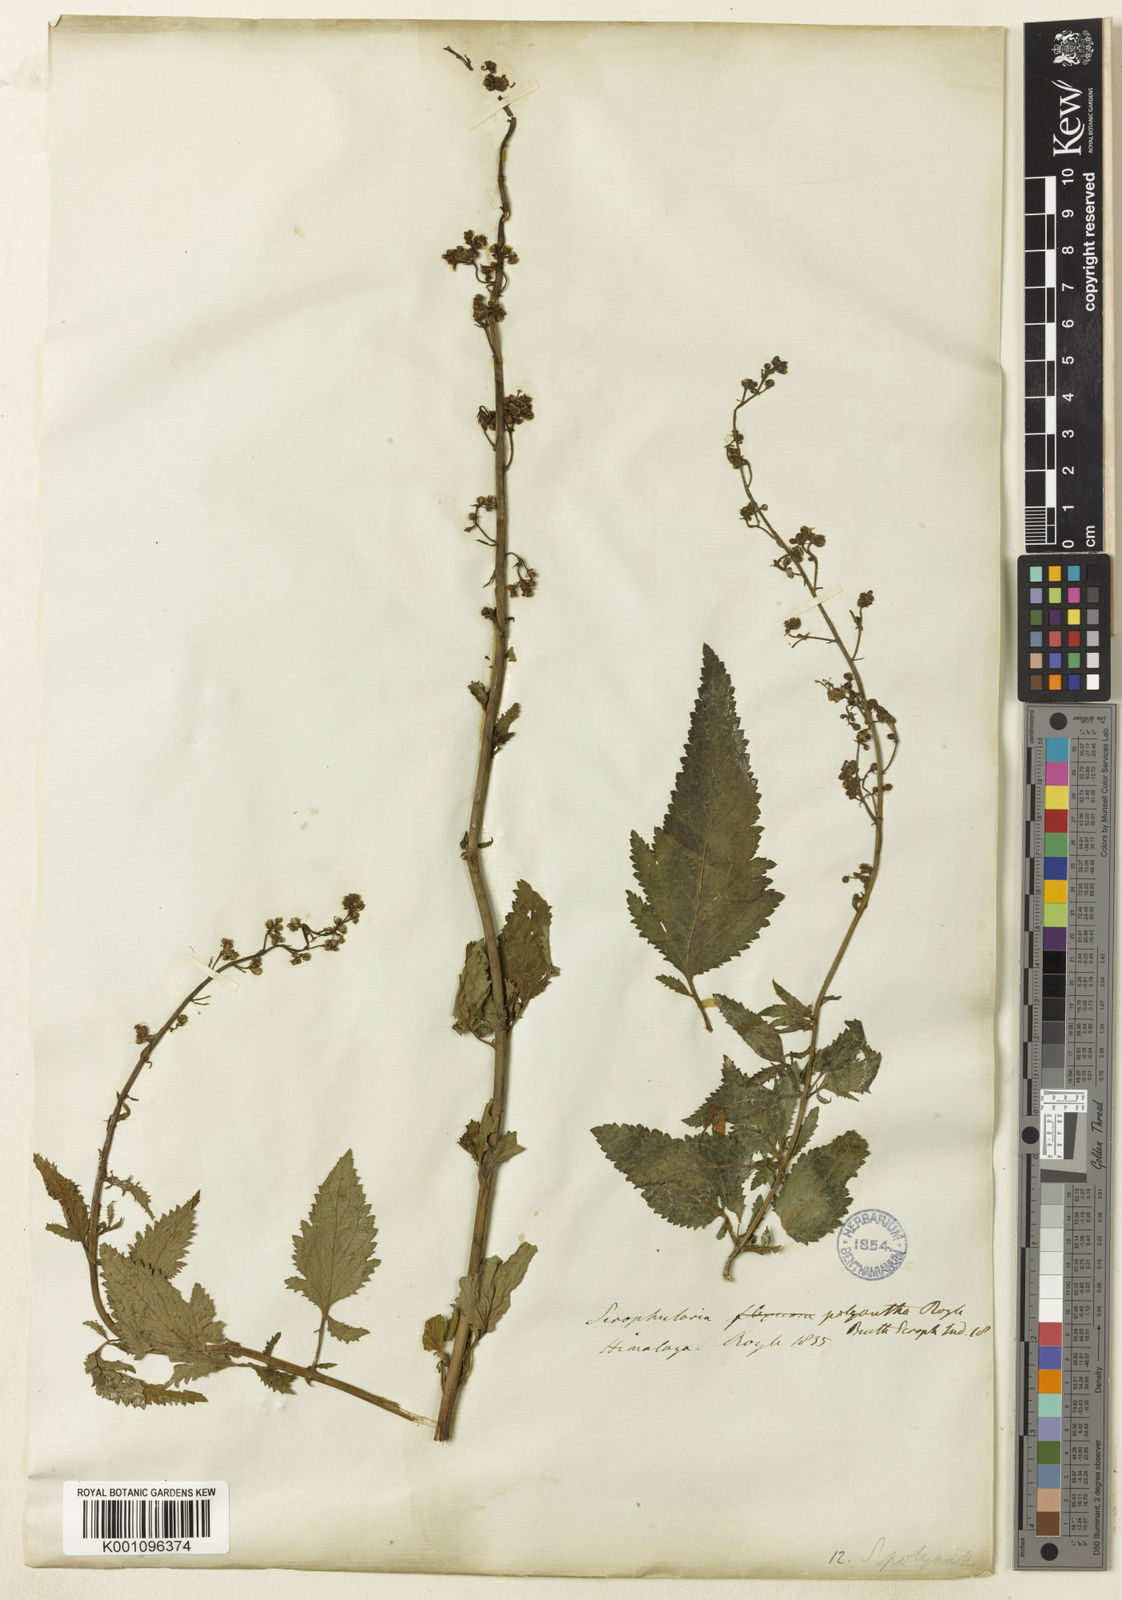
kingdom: Plantae
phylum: Tracheophyta
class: Magnoliopsida
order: Lamiales
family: Scrophulariaceae
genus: Scrophularia
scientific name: Scrophularia polyantha
